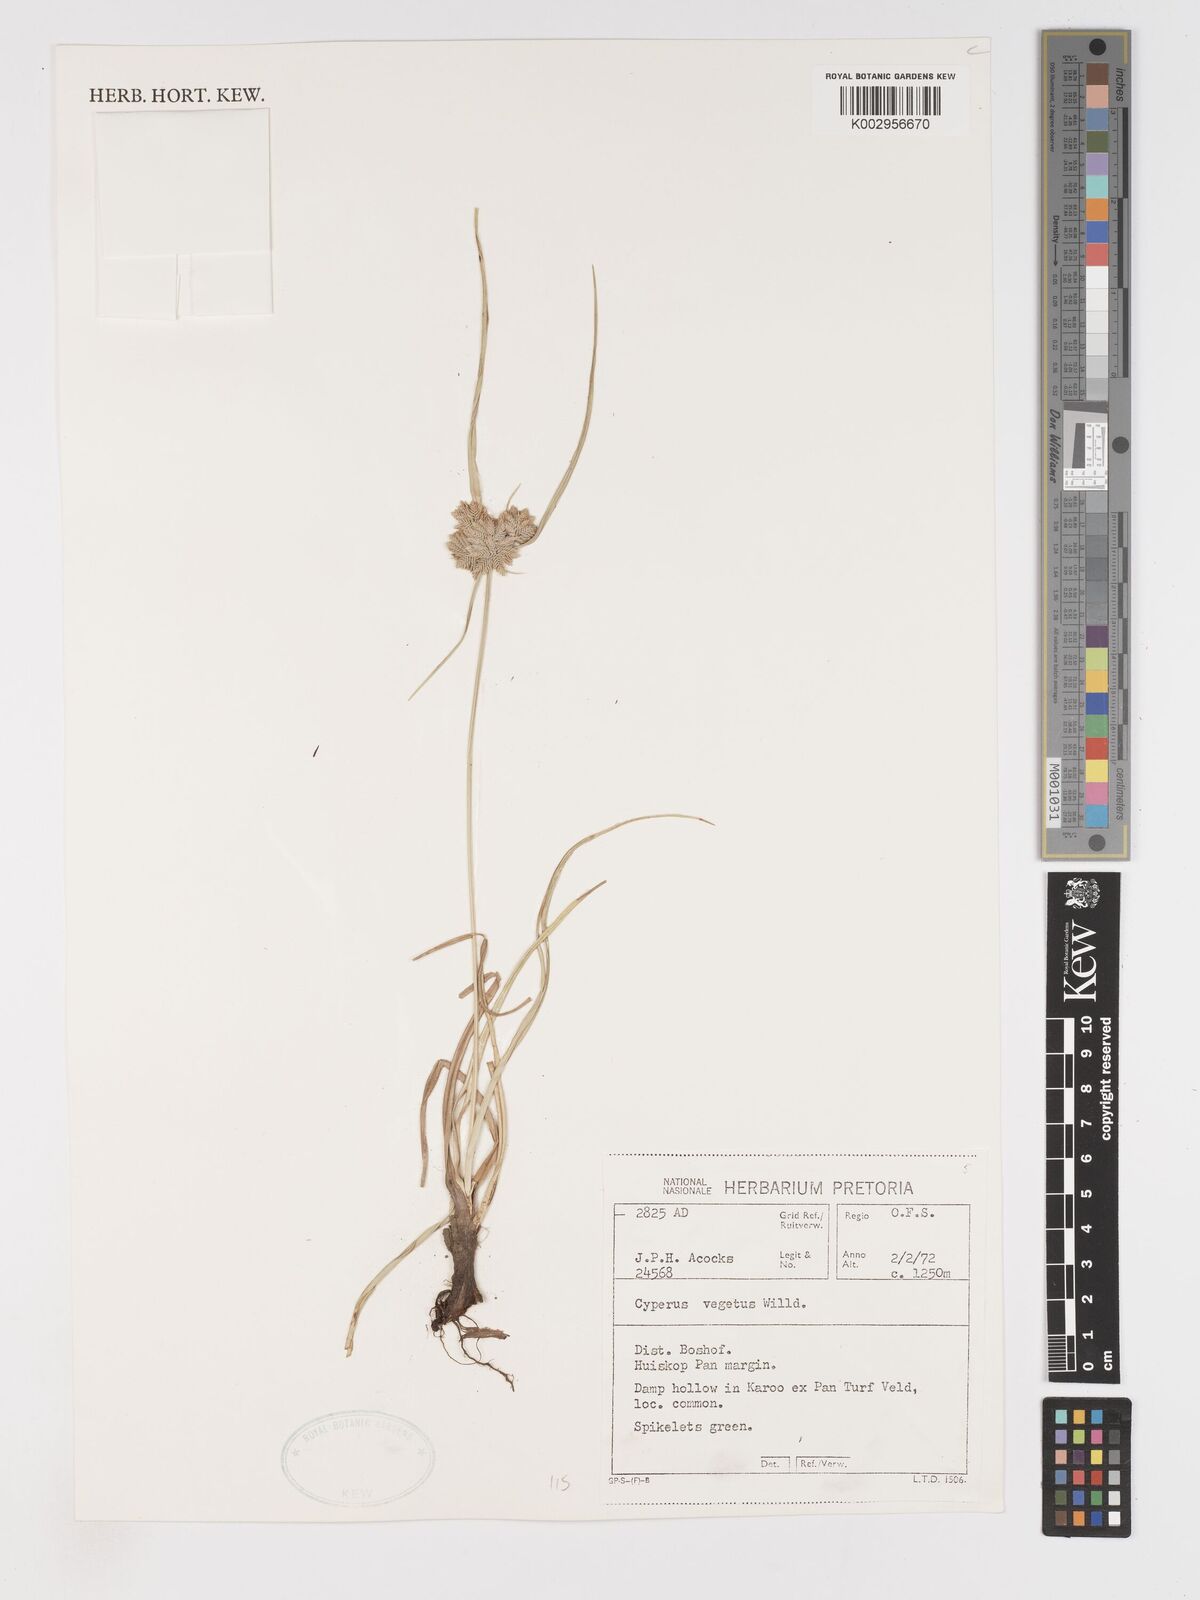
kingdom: Plantae
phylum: Tracheophyta
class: Liliopsida
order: Poales
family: Cyperaceae
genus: Cyperus
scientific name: Cyperus eragrostis
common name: Tall flatsedge
